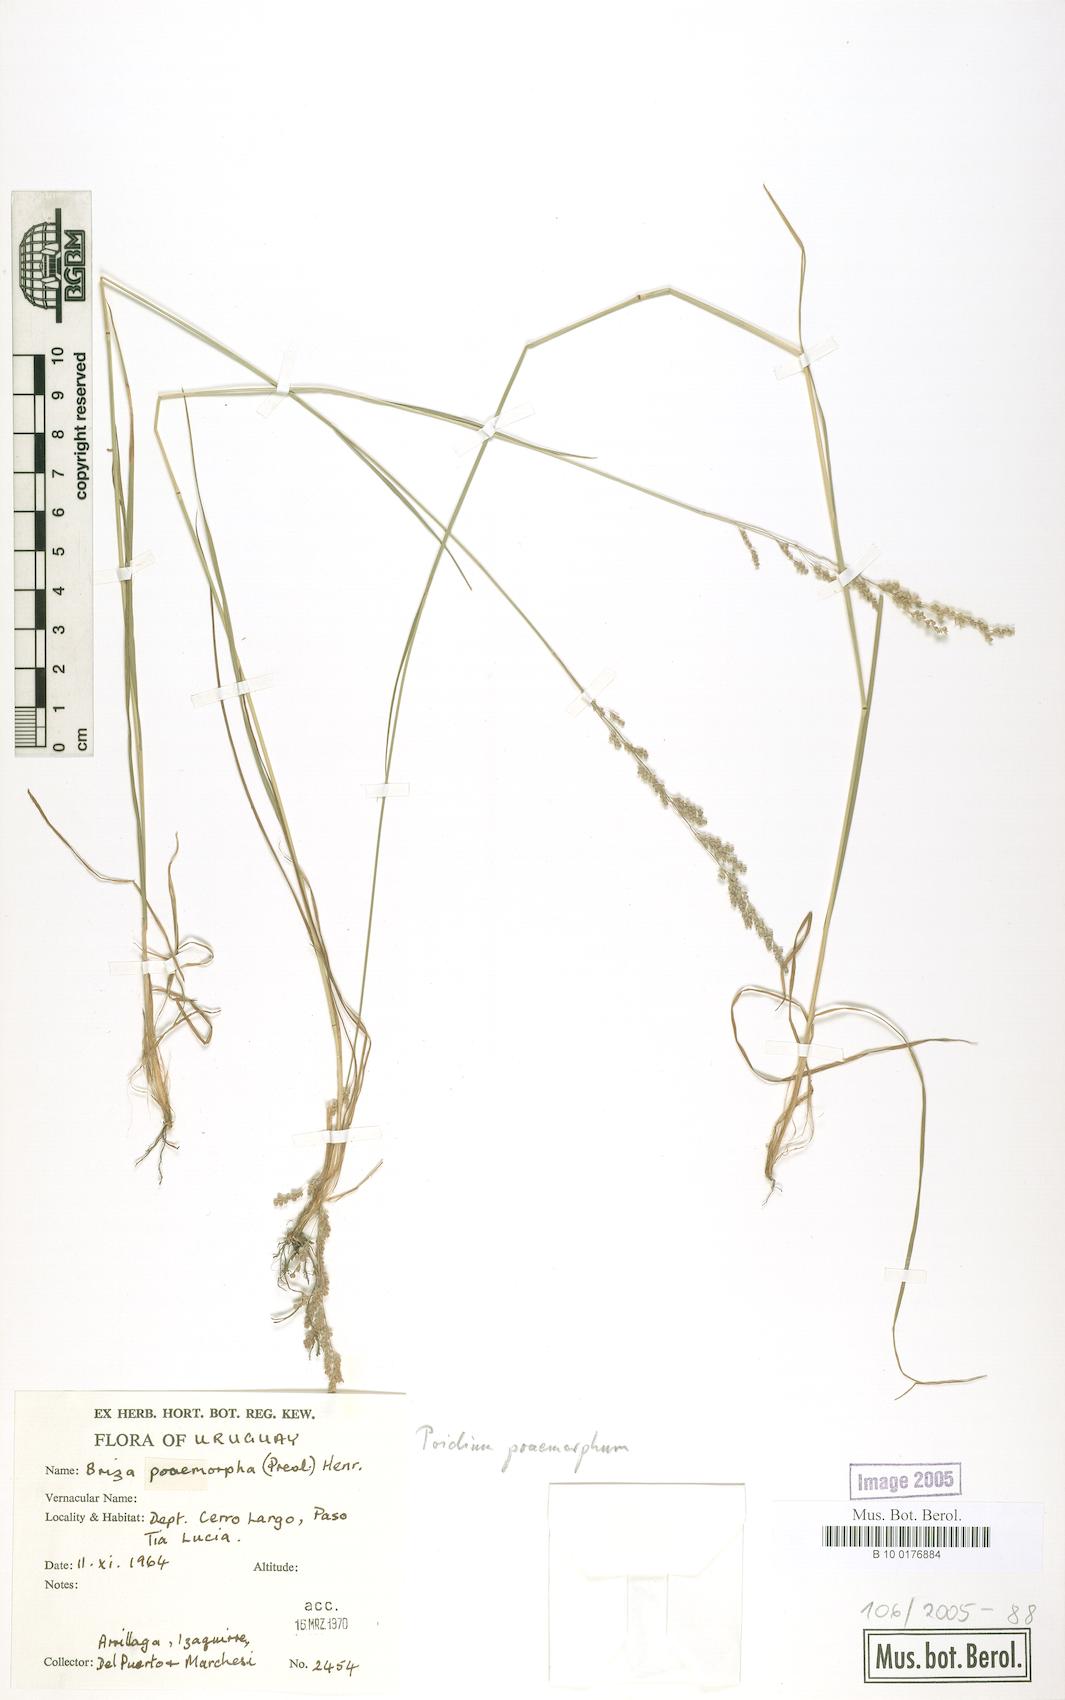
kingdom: Plantae
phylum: Tracheophyta
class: Liliopsida
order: Poales
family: Poaceae
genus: Chascolytrum
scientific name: Chascolytrum poomorphum
